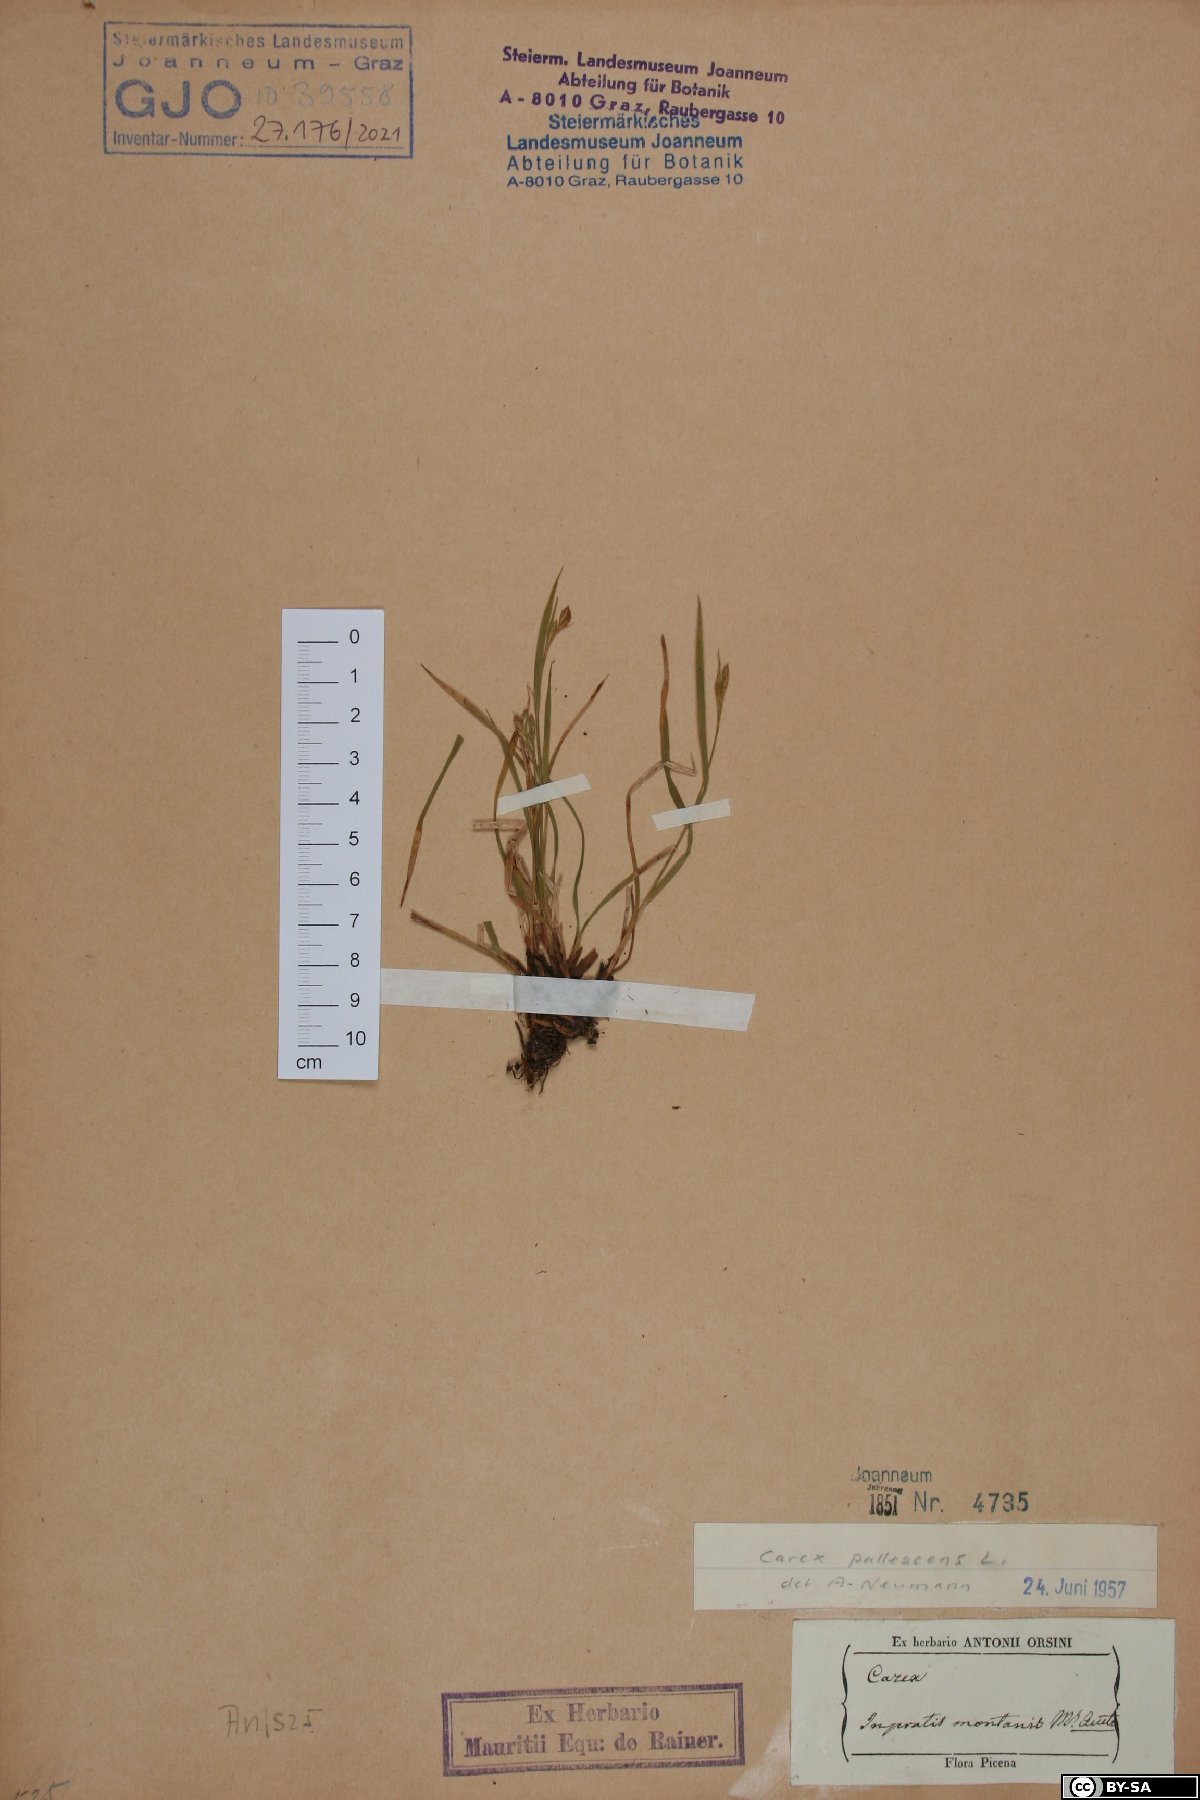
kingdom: Plantae
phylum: Tracheophyta
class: Liliopsida
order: Poales
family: Cyperaceae
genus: Carex
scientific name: Carex pallescens
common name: Pale sedge
